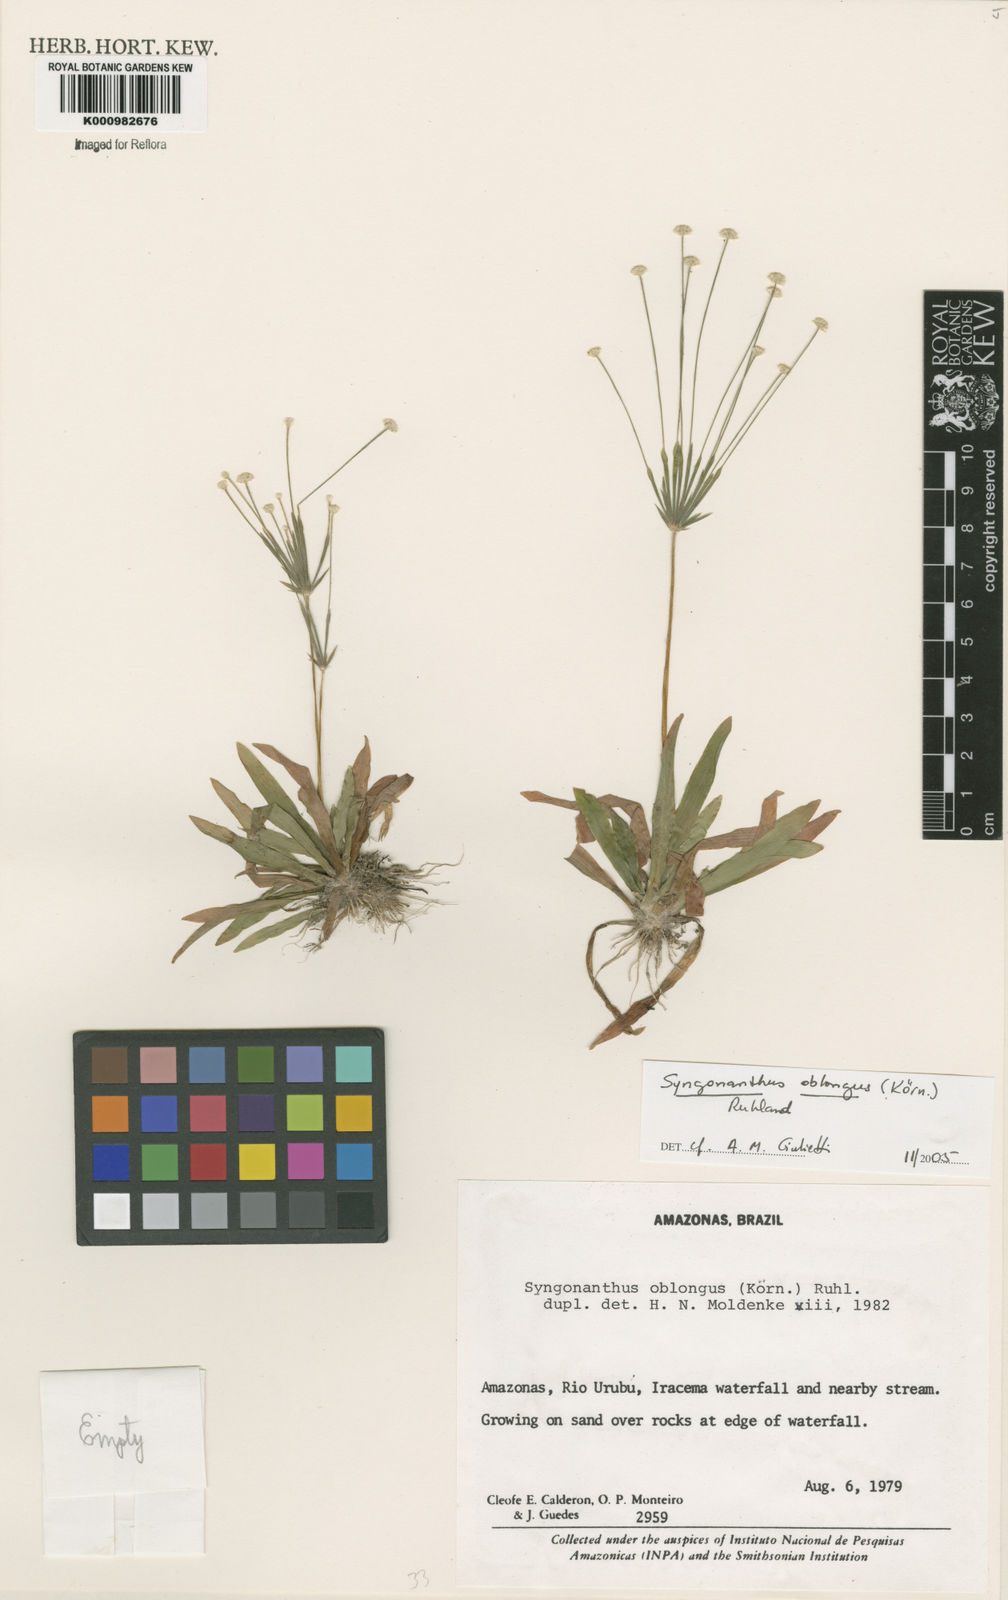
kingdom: Plantae
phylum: Tracheophyta
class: Liliopsida
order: Poales
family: Eriocaulaceae
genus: Syngonanthus
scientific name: Syngonanthus
